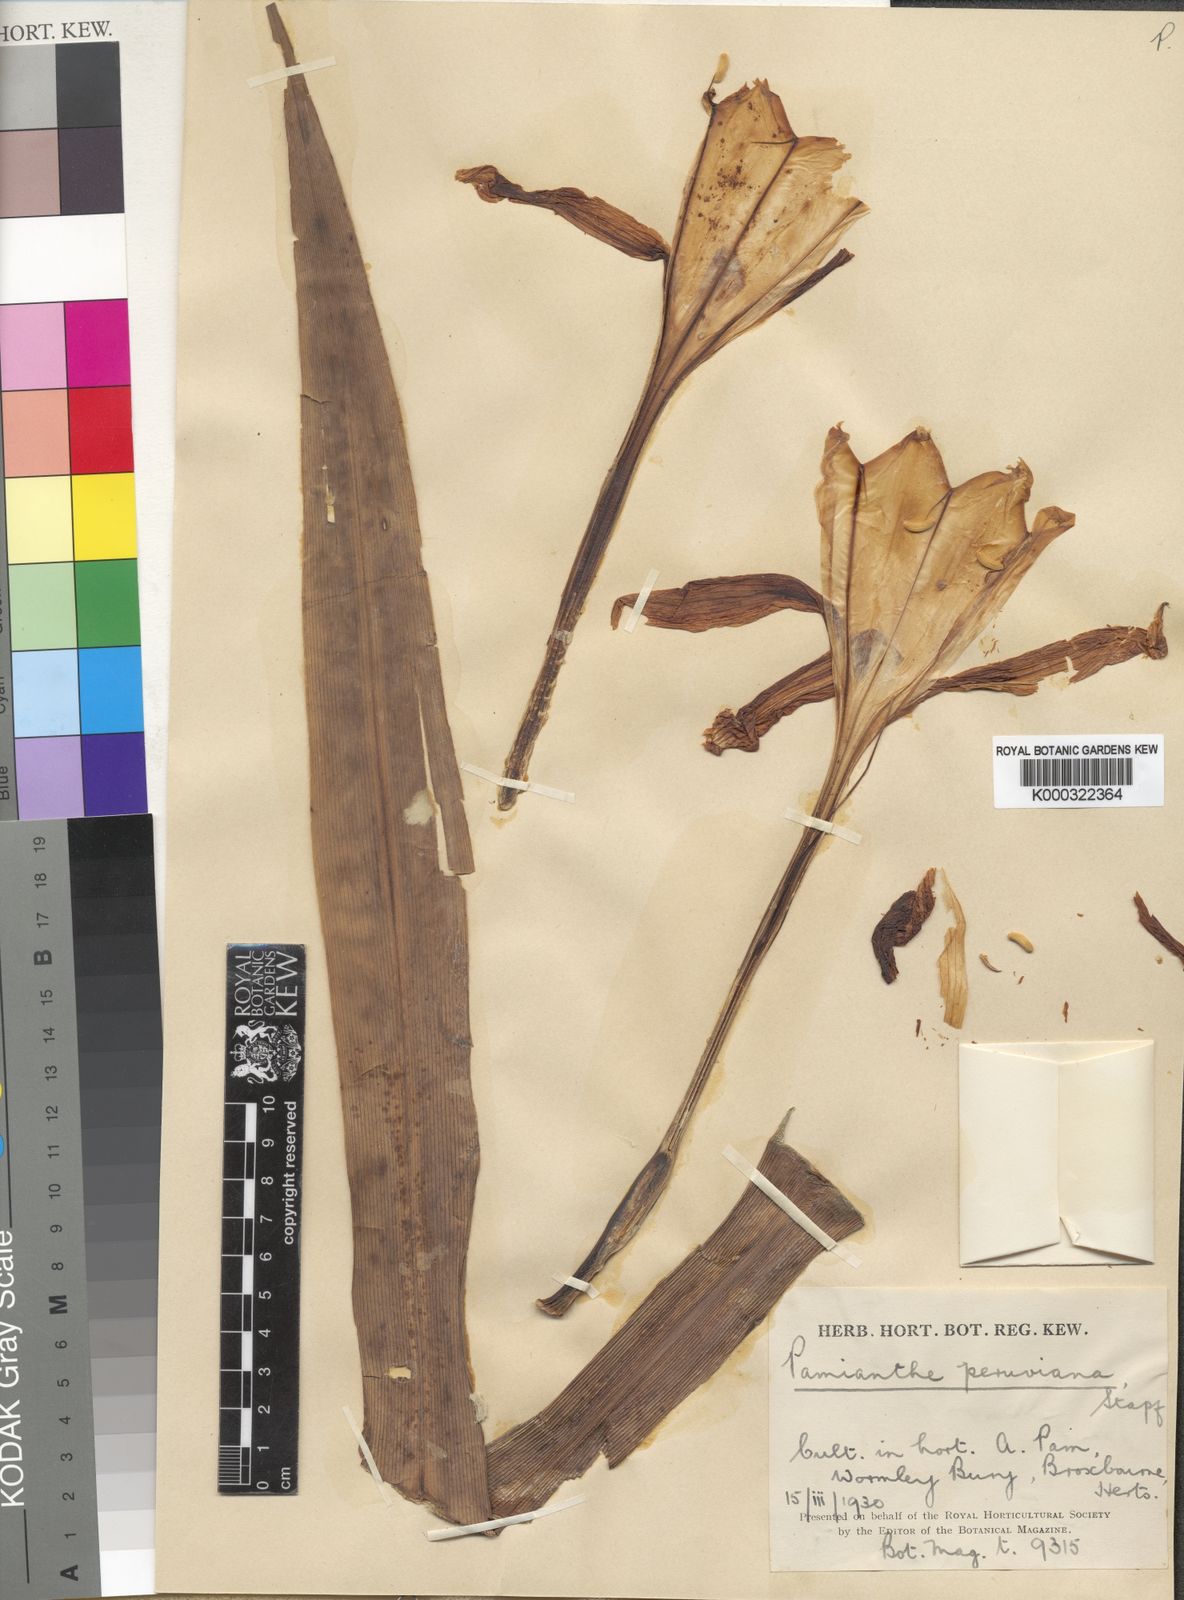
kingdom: Plantae
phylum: Tracheophyta
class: Liliopsida
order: Asparagales
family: Amaryllidaceae
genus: Pamianthe
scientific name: Pamianthe peruviana
